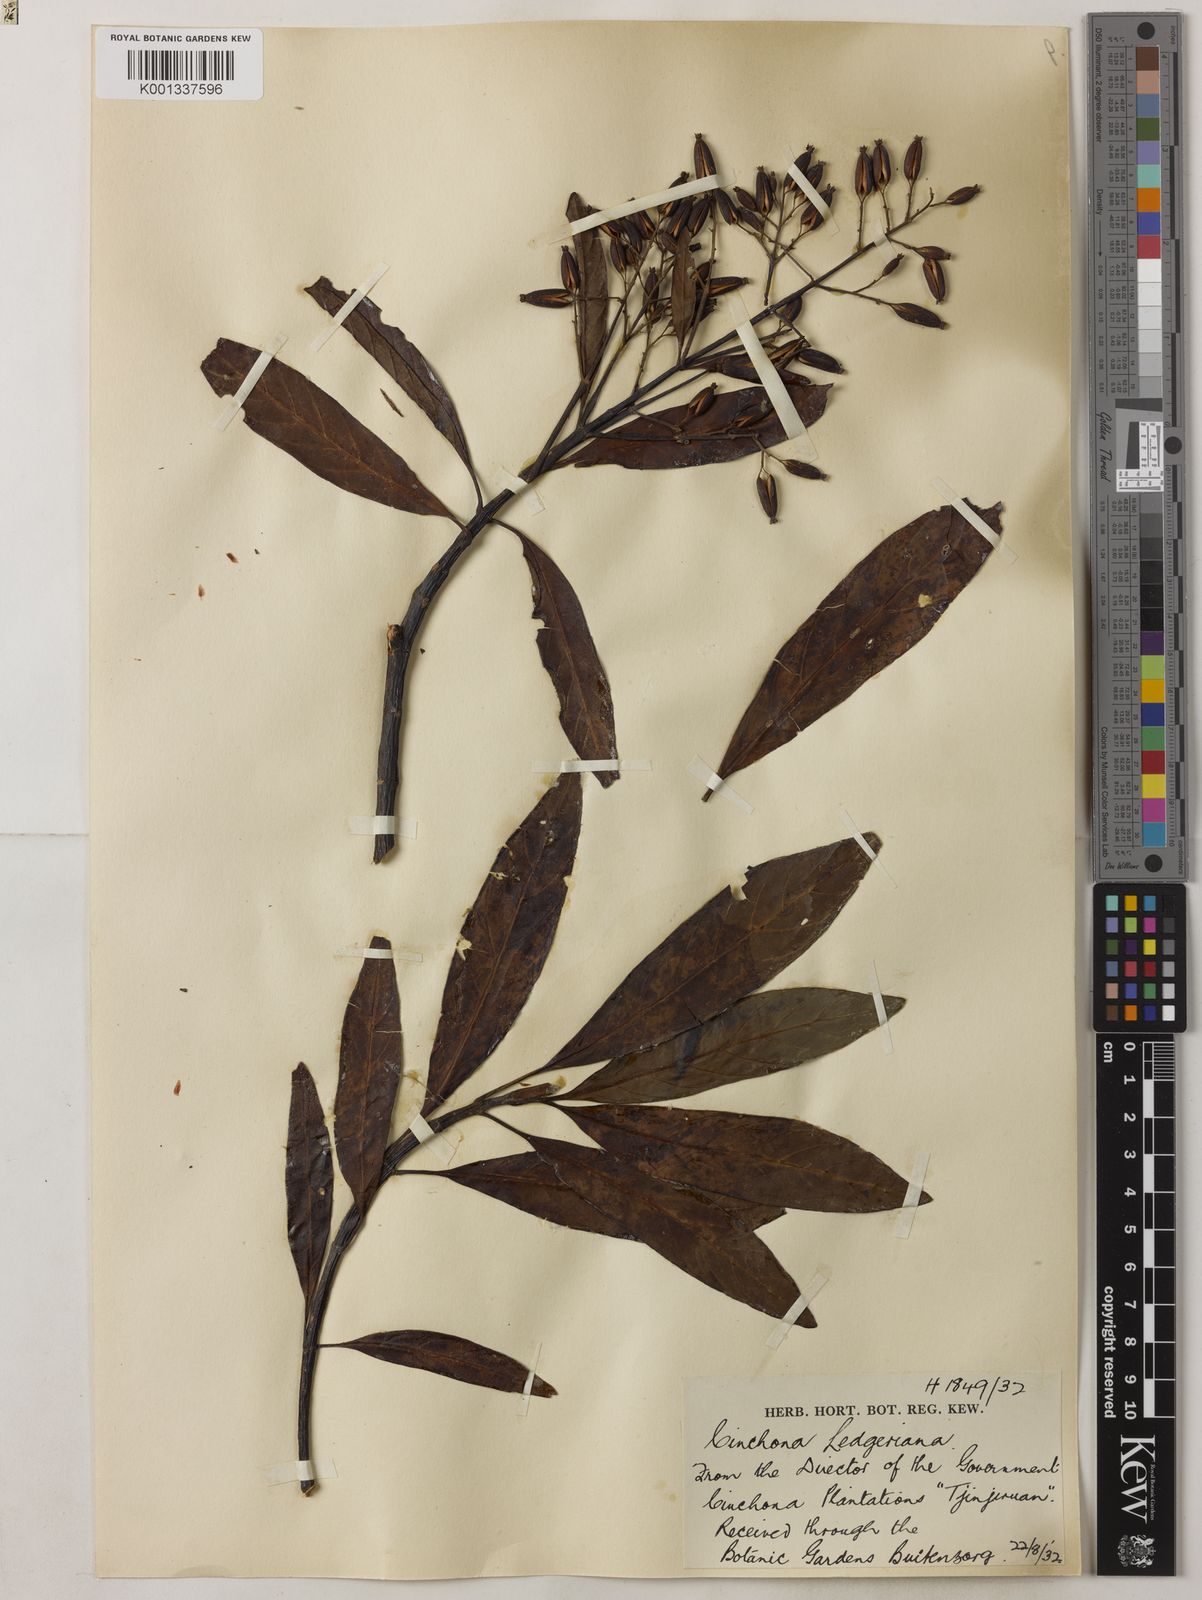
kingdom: Plantae
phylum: Tracheophyta
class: Magnoliopsida
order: Gentianales
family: Rubiaceae
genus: Cinchona
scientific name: Cinchona calisaya
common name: Ledgerbark
